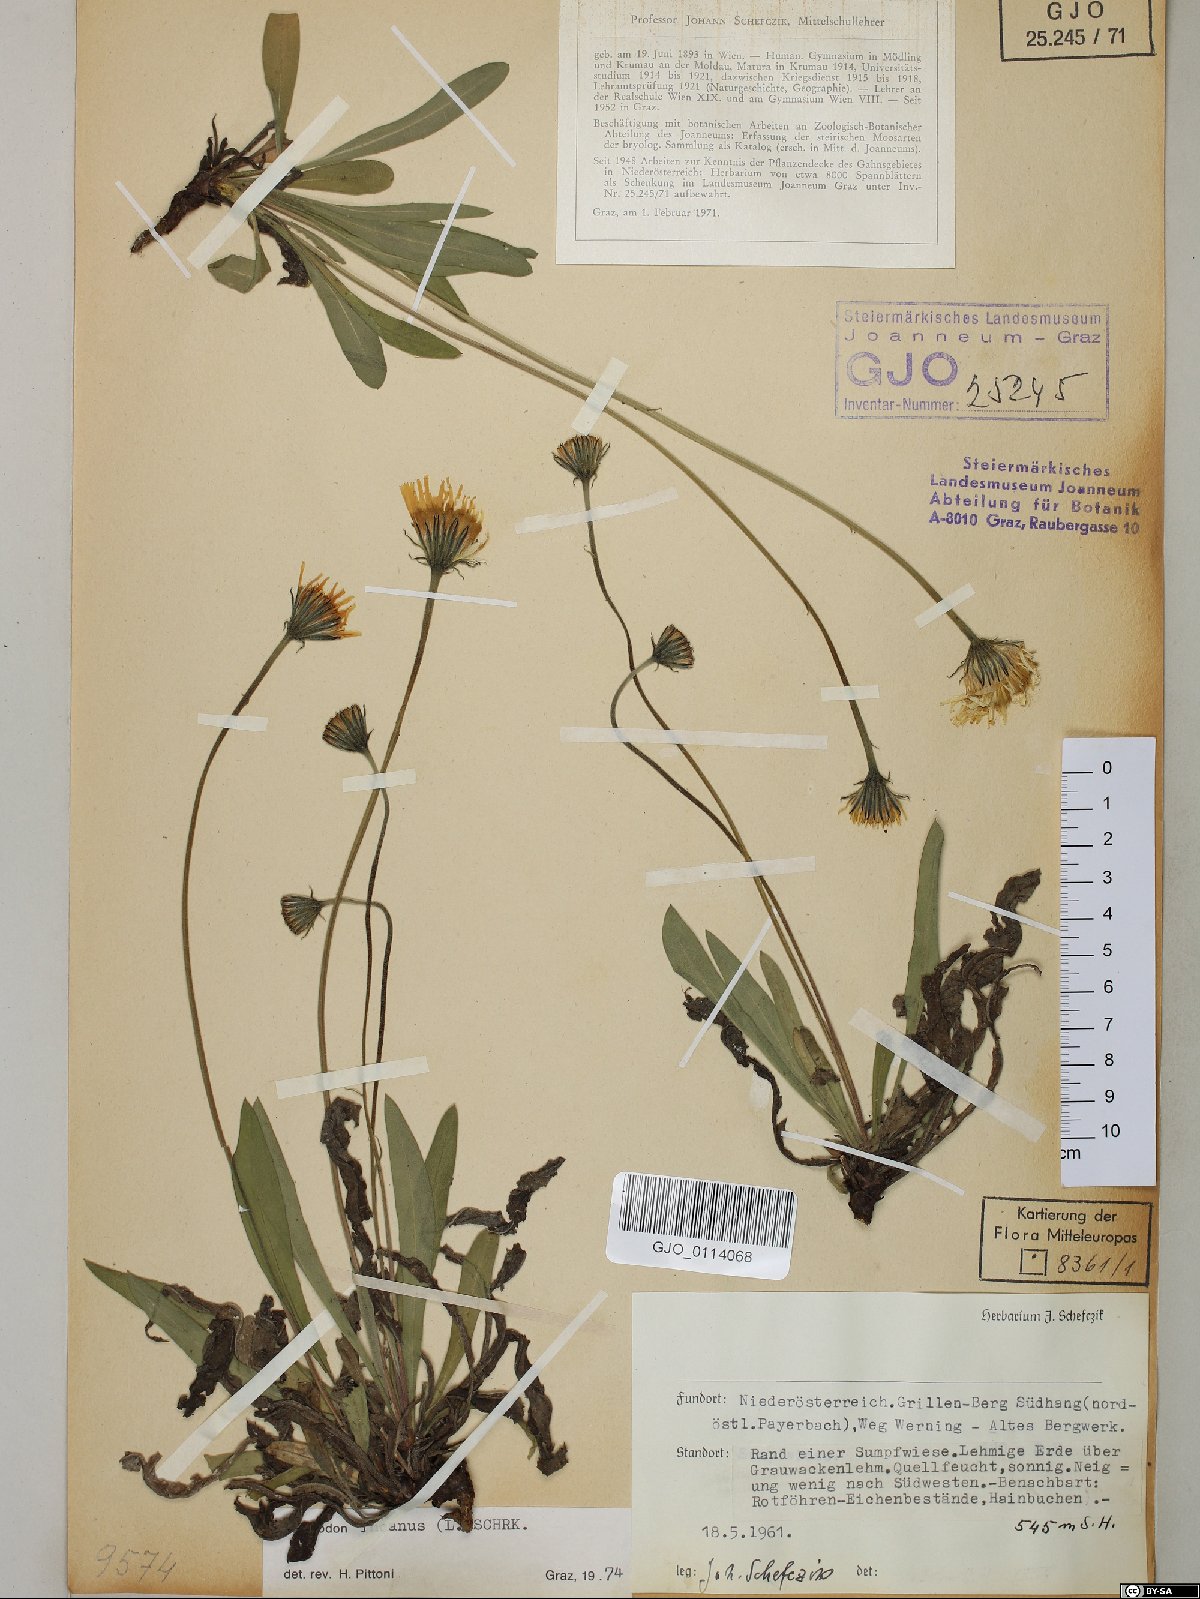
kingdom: Plantae
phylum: Tracheophyta
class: Magnoliopsida
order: Asterales
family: Asteraceae
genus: Leontodon
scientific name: Leontodon incanus
